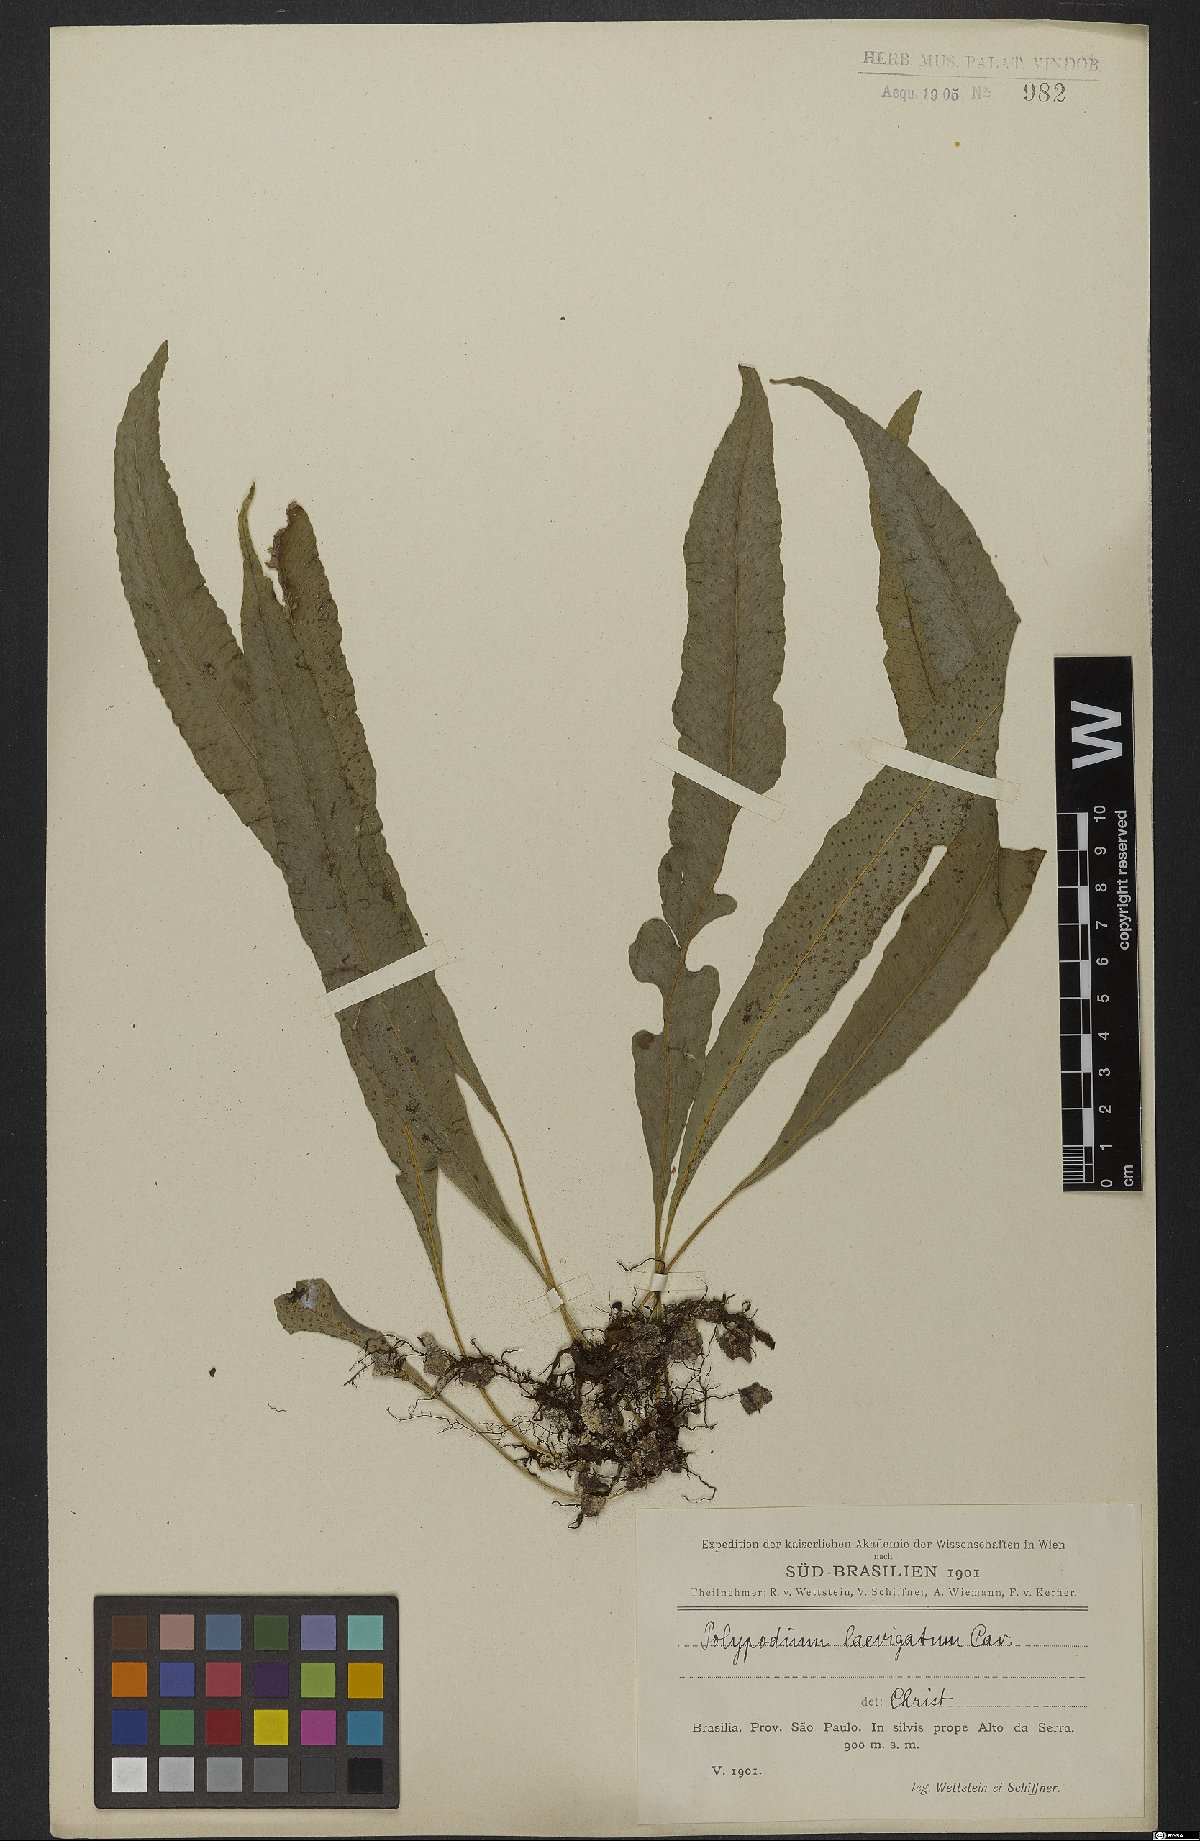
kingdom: Plantae
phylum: Tracheophyta
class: Polypodiopsida
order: Polypodiales
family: Polypodiaceae
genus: Serpocaulon
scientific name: Serpocaulon levigatum
